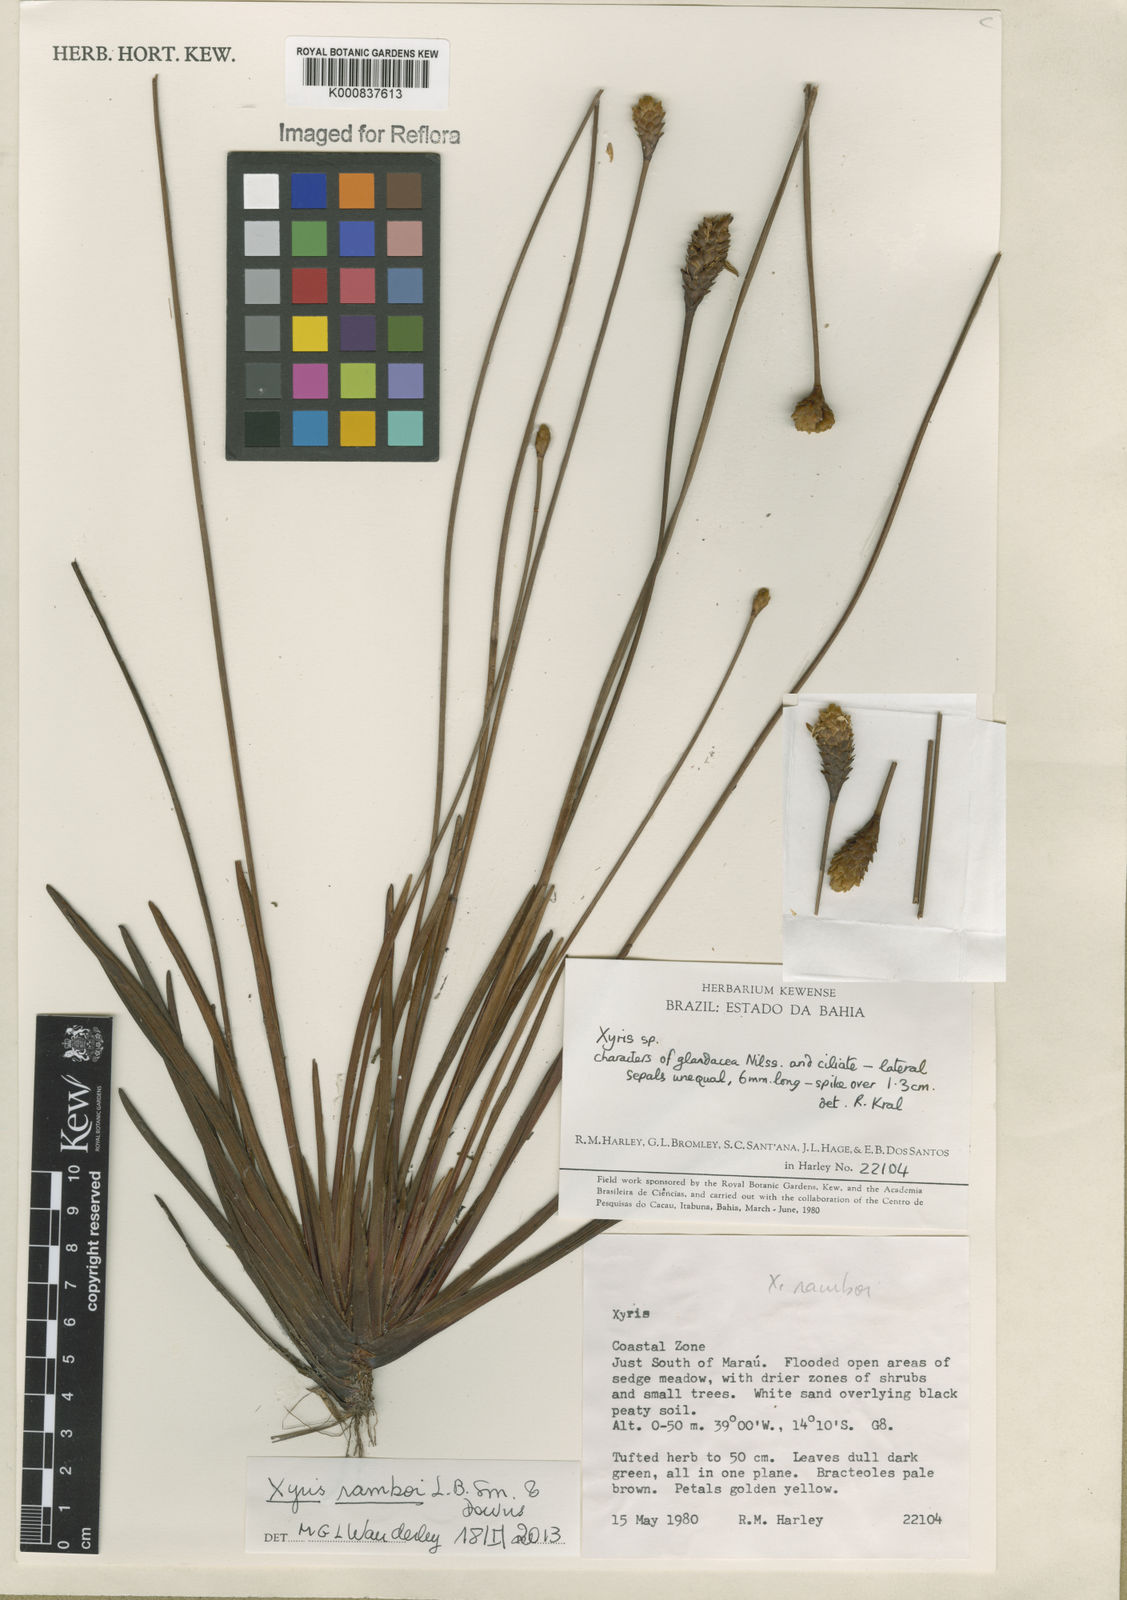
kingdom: Plantae
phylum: Tracheophyta
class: Liliopsida
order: Poales
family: Xyridaceae
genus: Xyris
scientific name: Xyris ramboi
